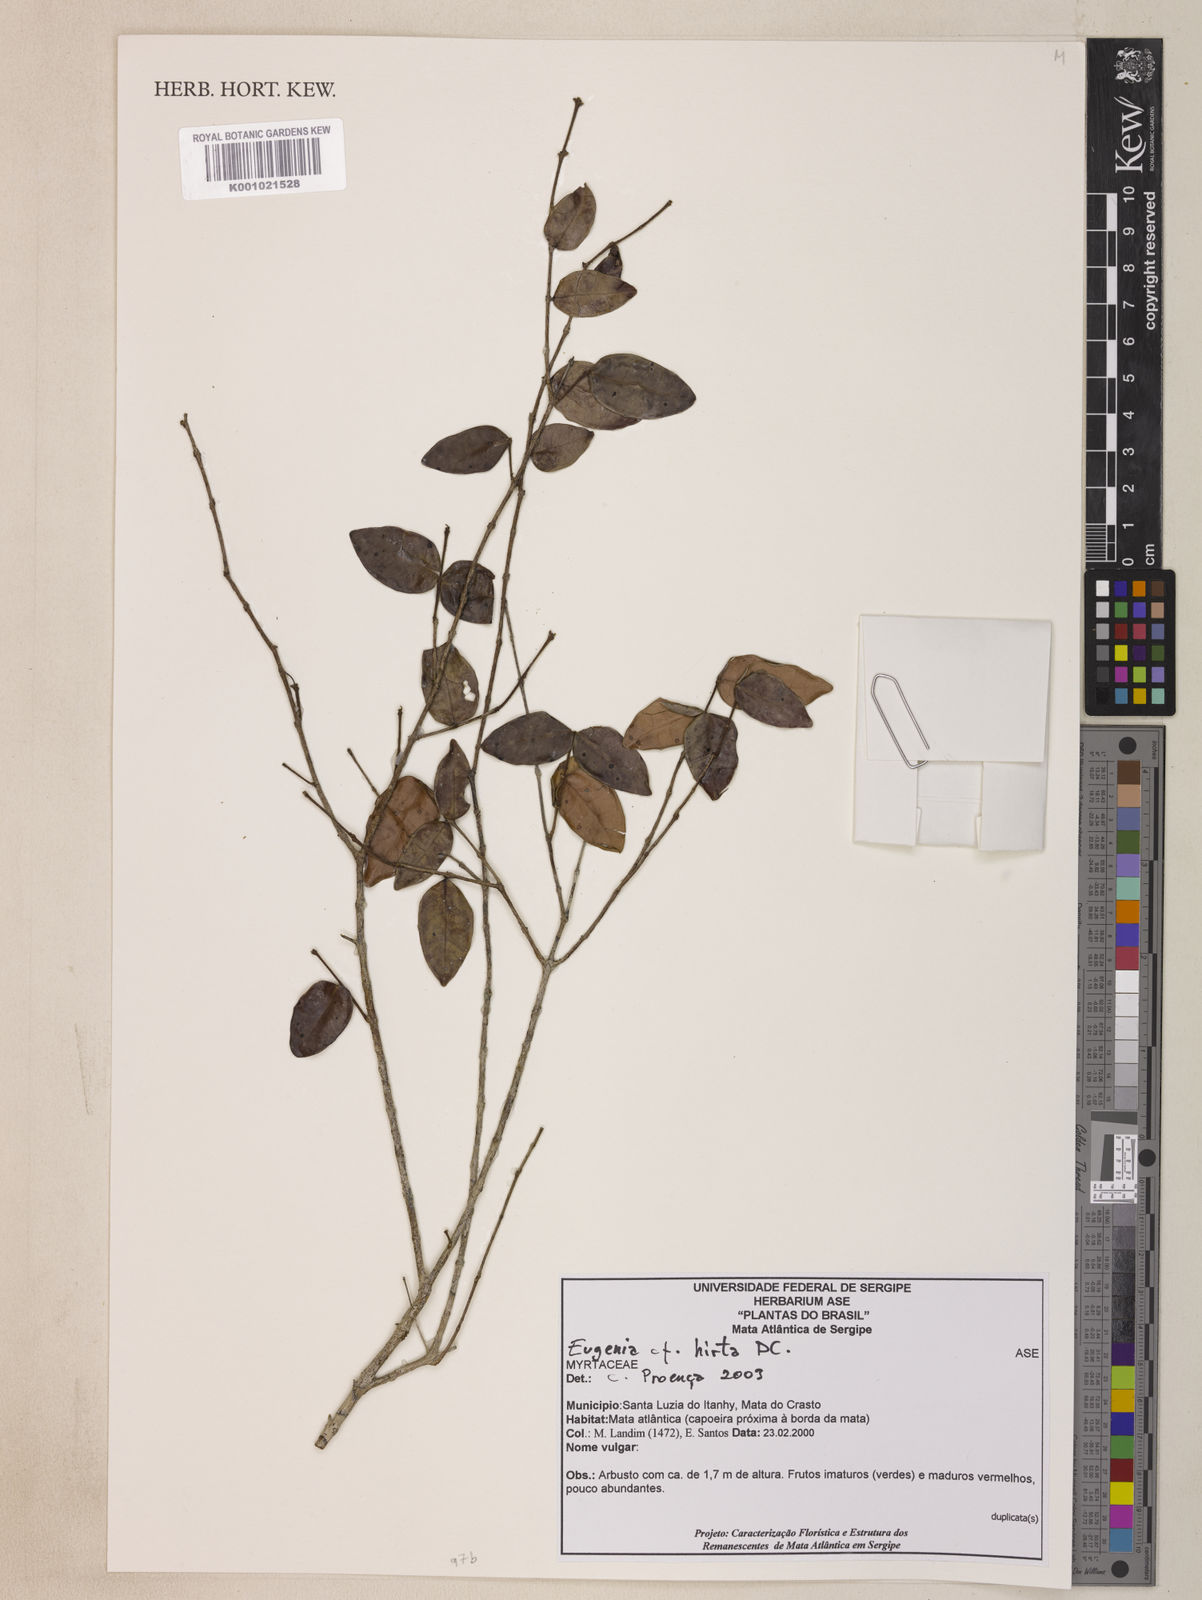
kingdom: Plantae
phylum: Tracheophyta
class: Magnoliopsida
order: Myrtales
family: Myrtaceae
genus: Eugenia
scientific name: Eugenia hirta
